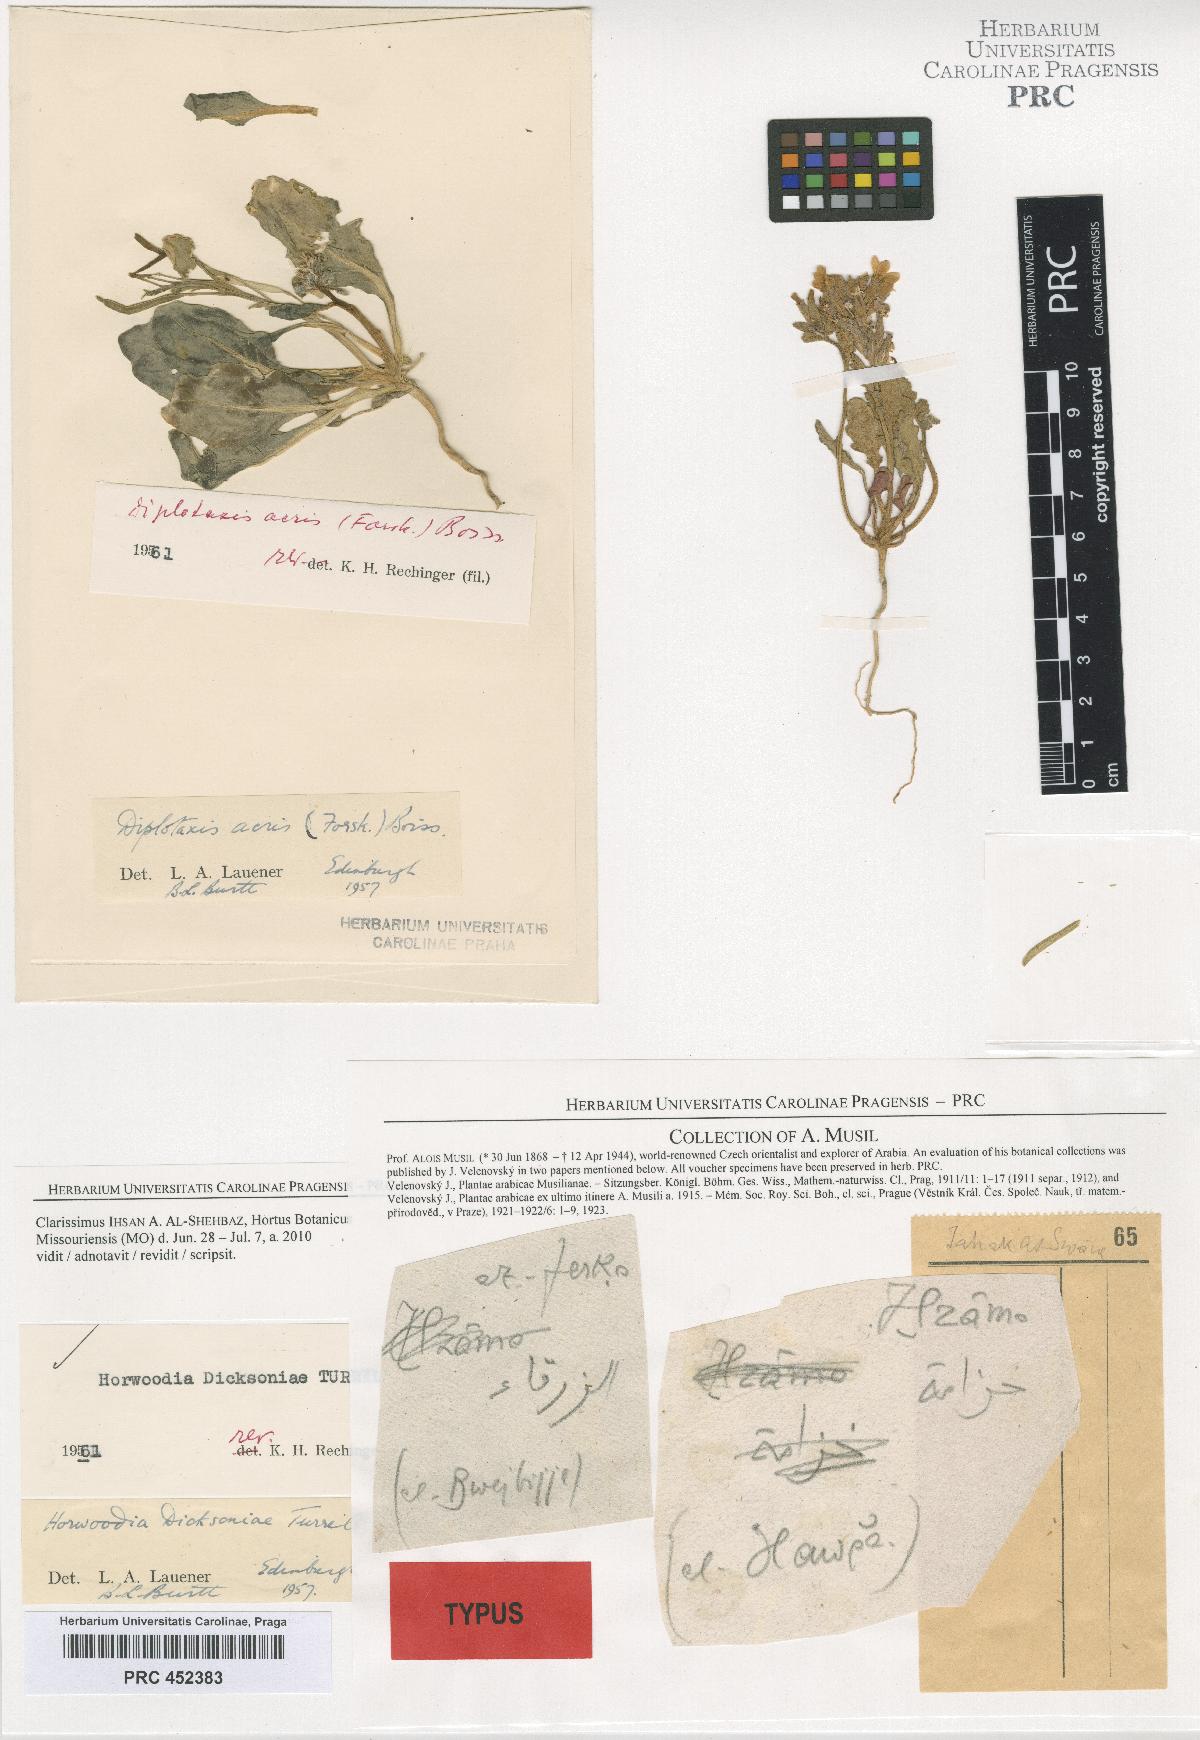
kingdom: Plantae
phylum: Tracheophyta
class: Magnoliopsida
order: Brassicales
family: Brassicaceae
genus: Horwoodia
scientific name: Horwoodia dicksoniae
